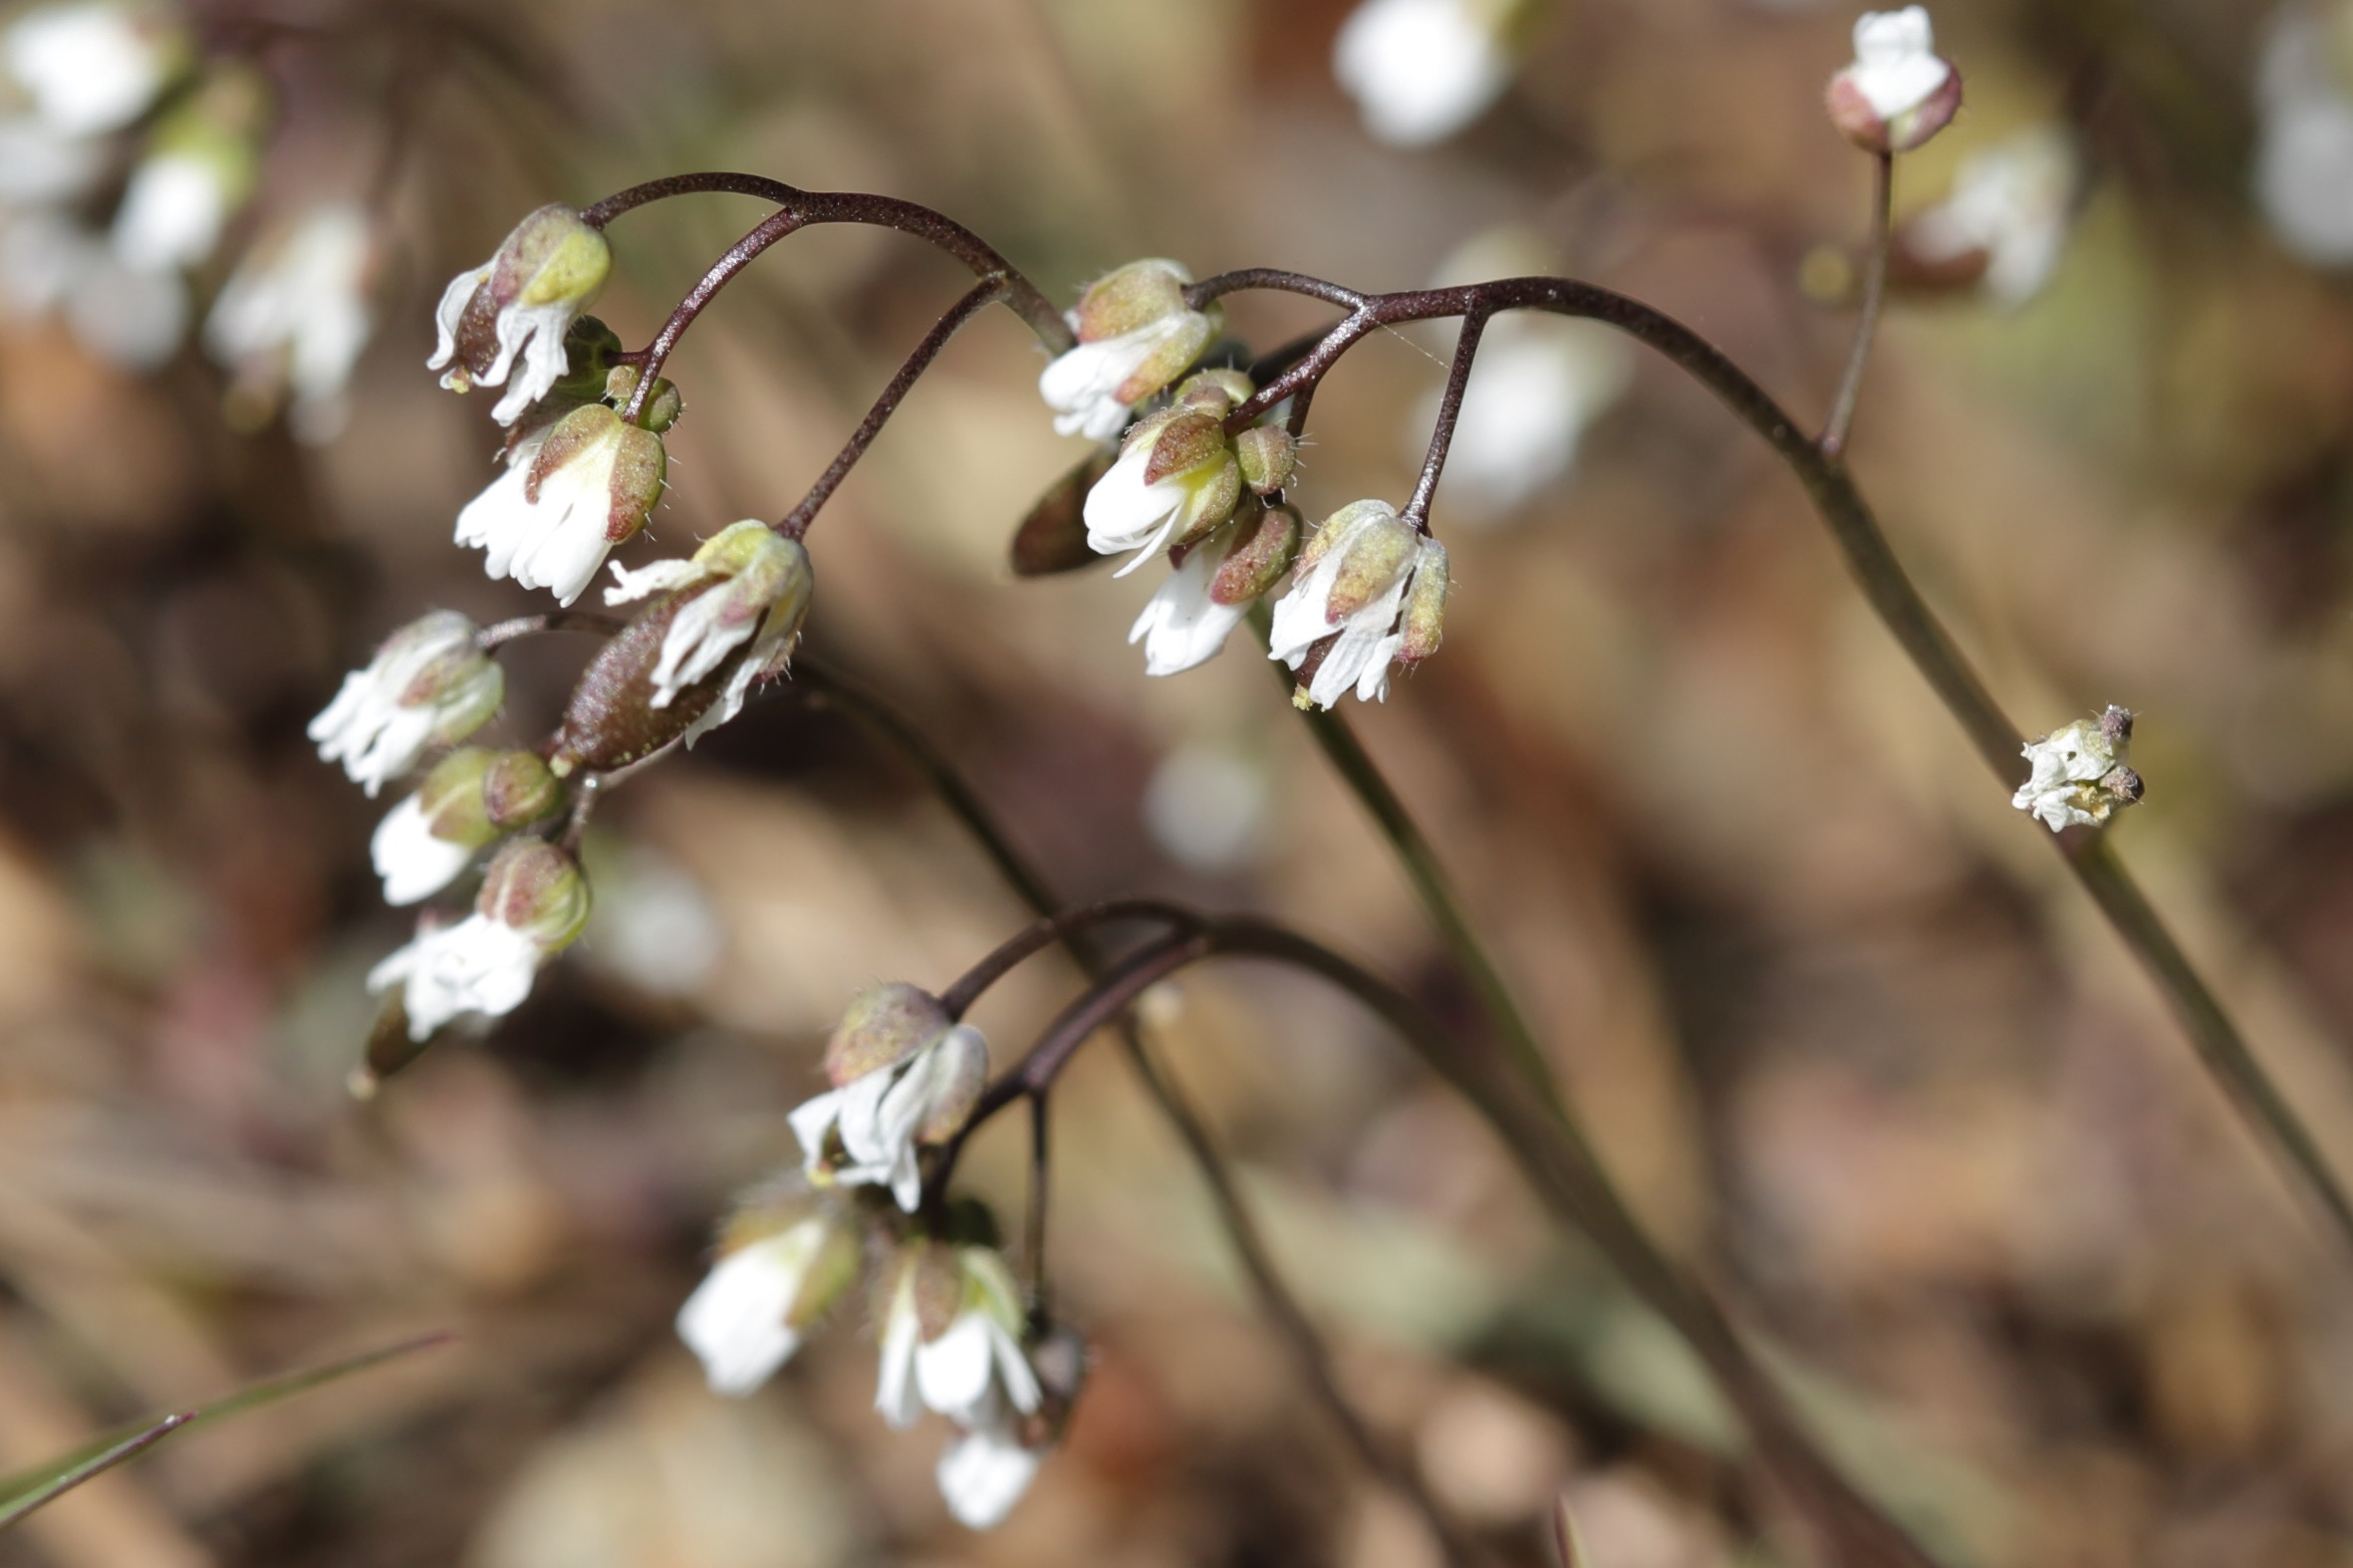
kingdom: Plantae
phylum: Tracheophyta
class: Magnoliopsida
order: Brassicales
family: Brassicaceae
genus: Draba
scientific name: Draba verna
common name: Vår-gæslingeblomst
